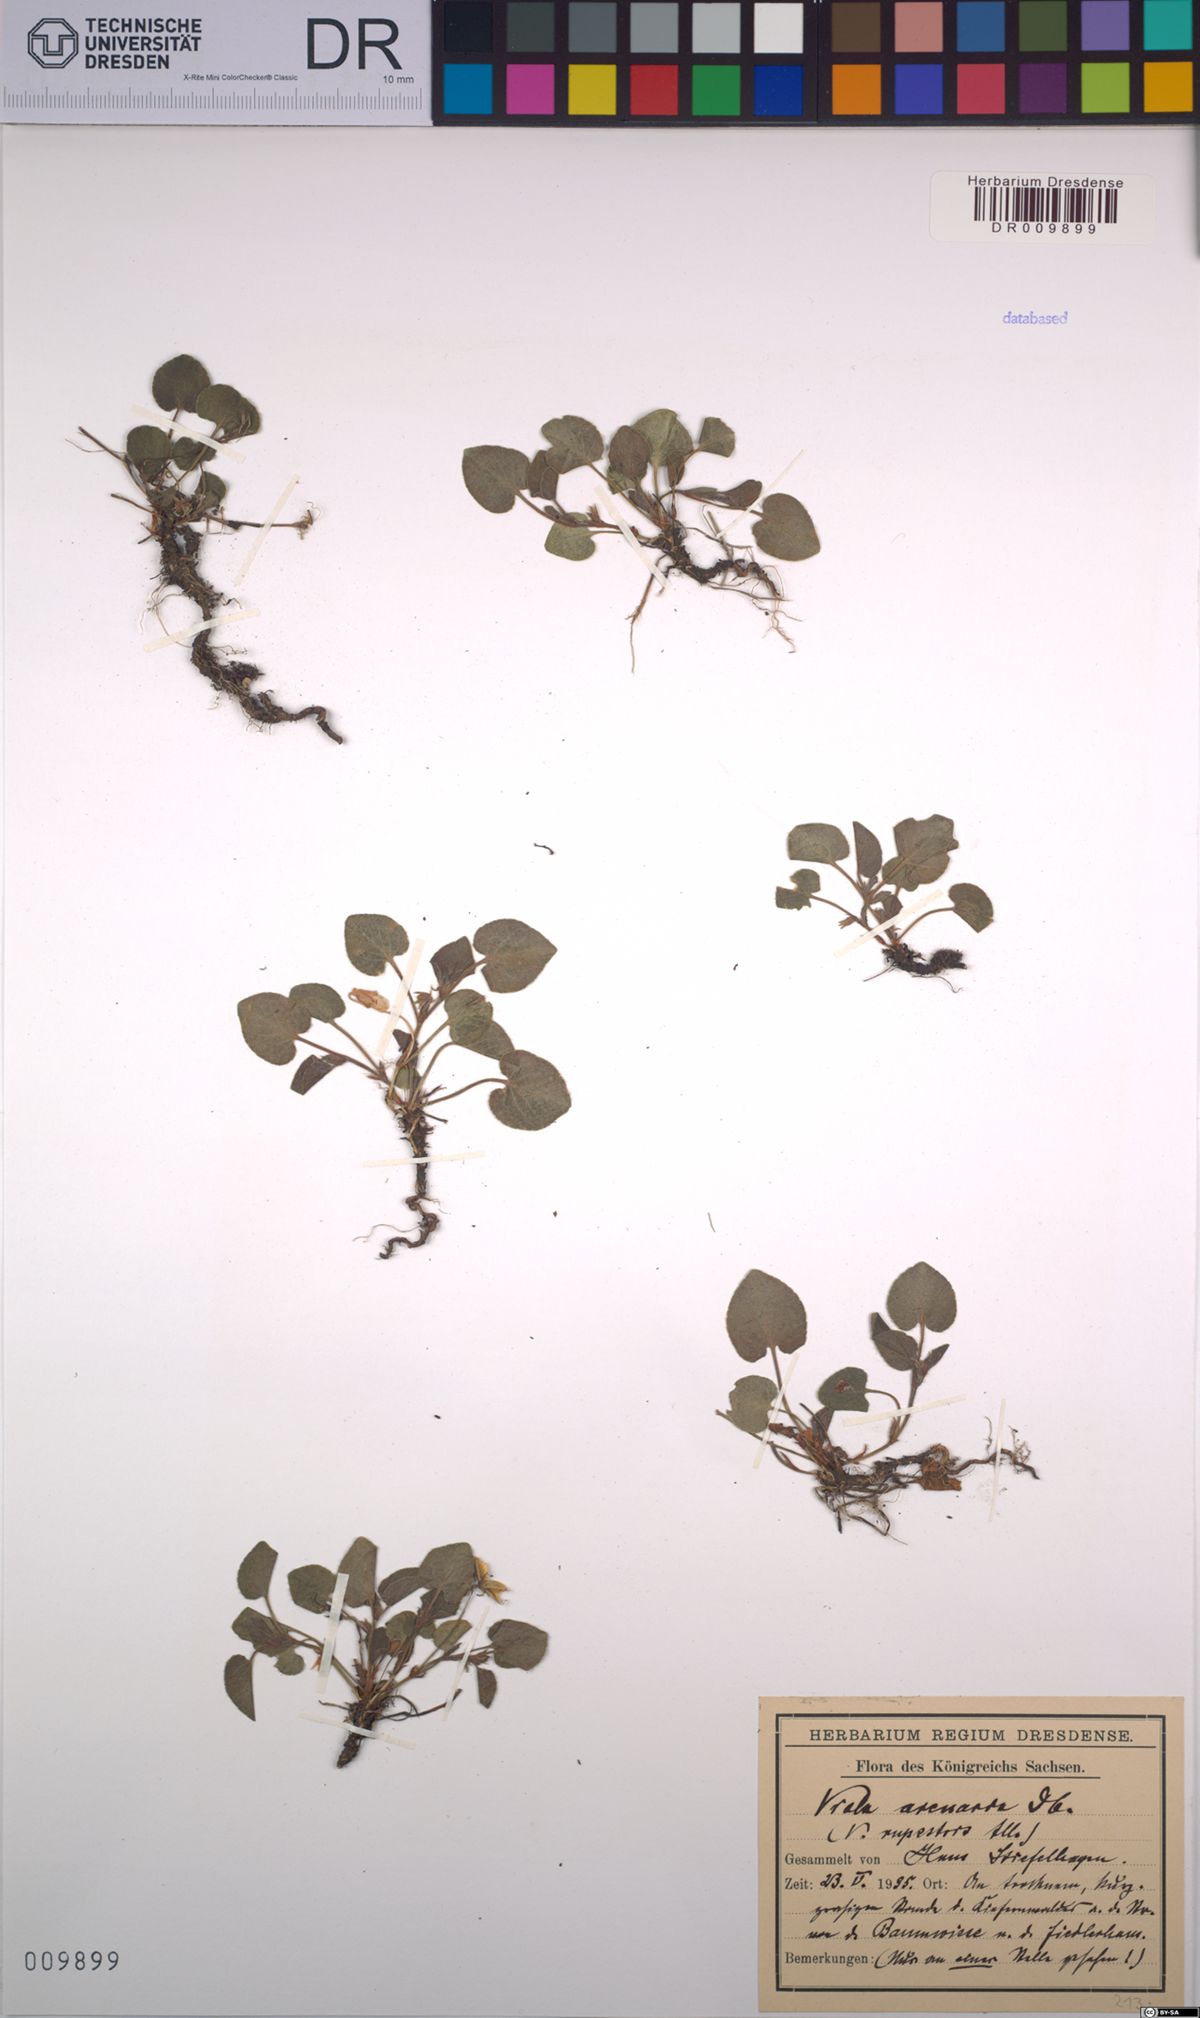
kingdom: Plantae
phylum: Tracheophyta
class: Magnoliopsida
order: Malpighiales
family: Violaceae
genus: Viola
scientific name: Viola rupestris
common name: Teesdale violet
